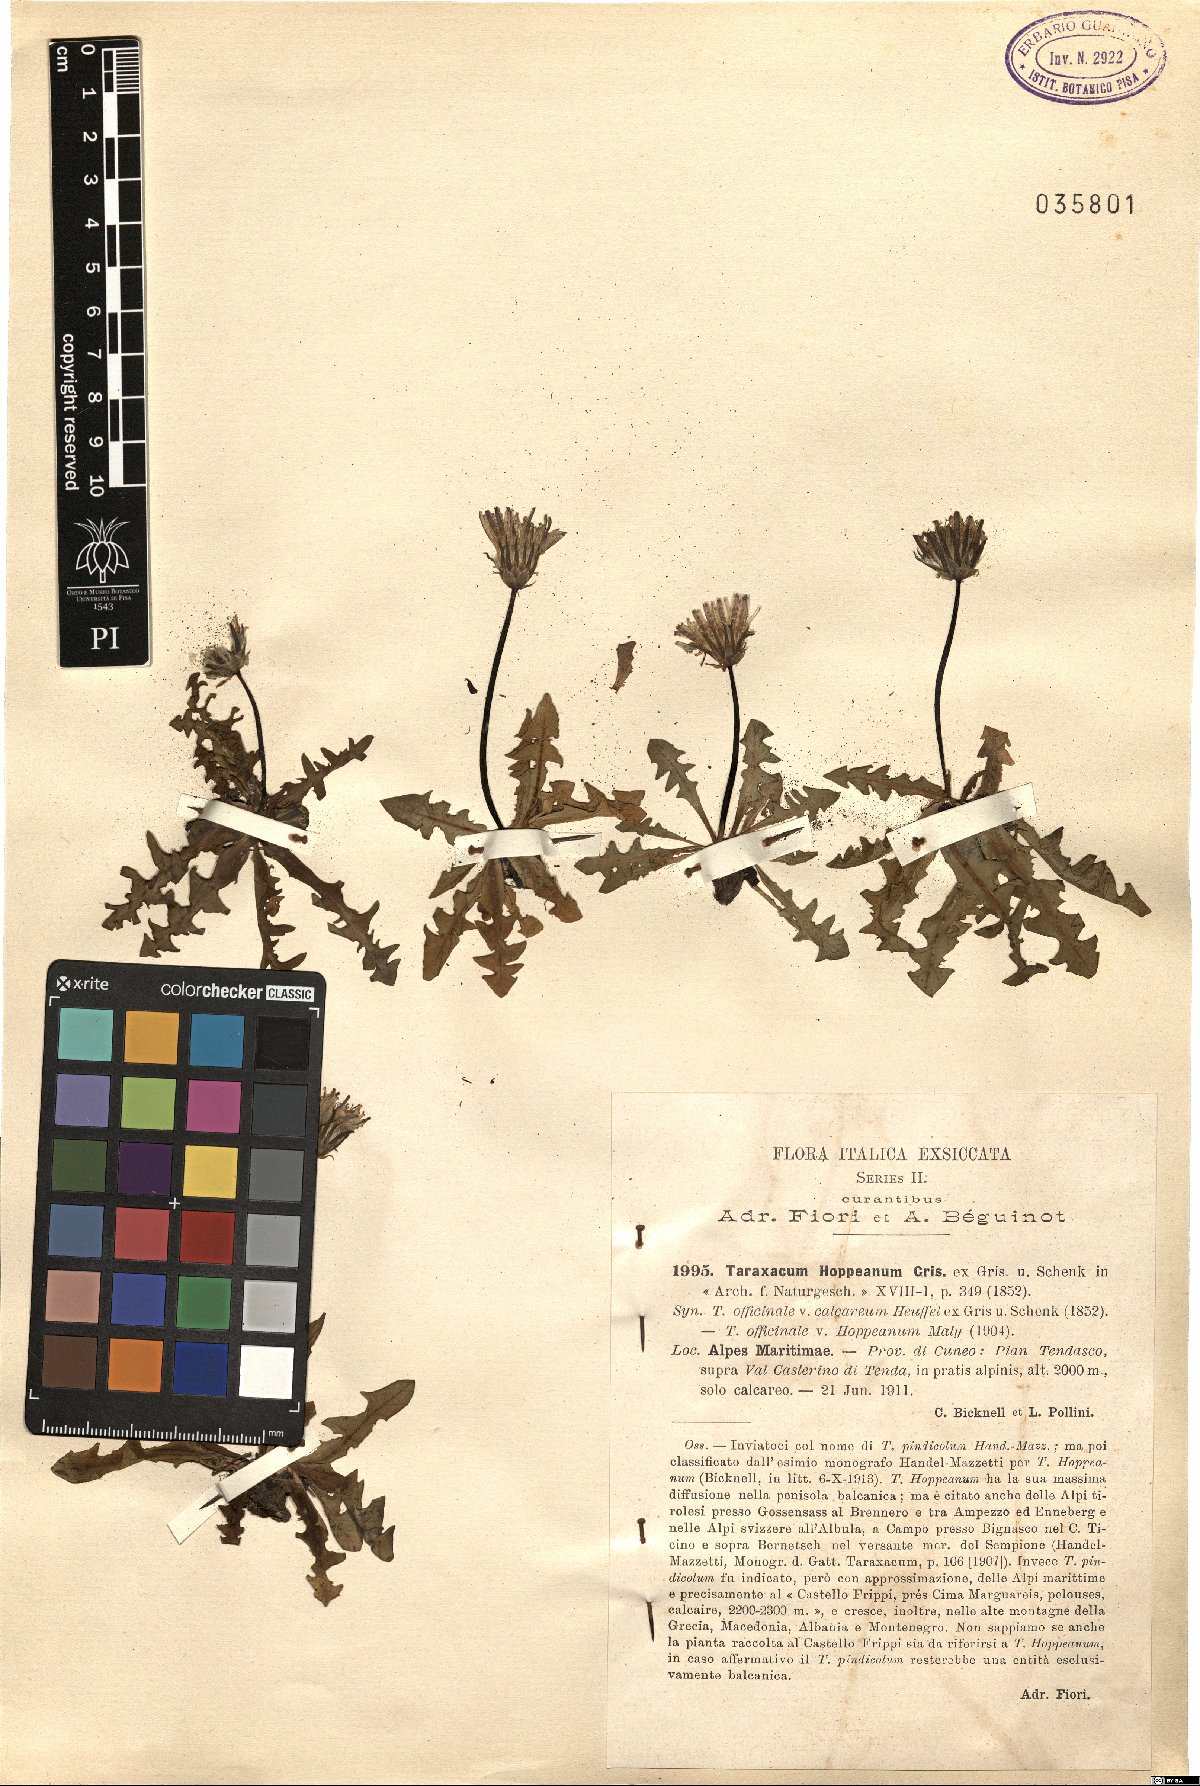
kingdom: Plantae
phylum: Tracheophyta
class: Magnoliopsida
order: Asterales
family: Asteraceae
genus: Taraxacum
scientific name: Taraxacum calocephalum
